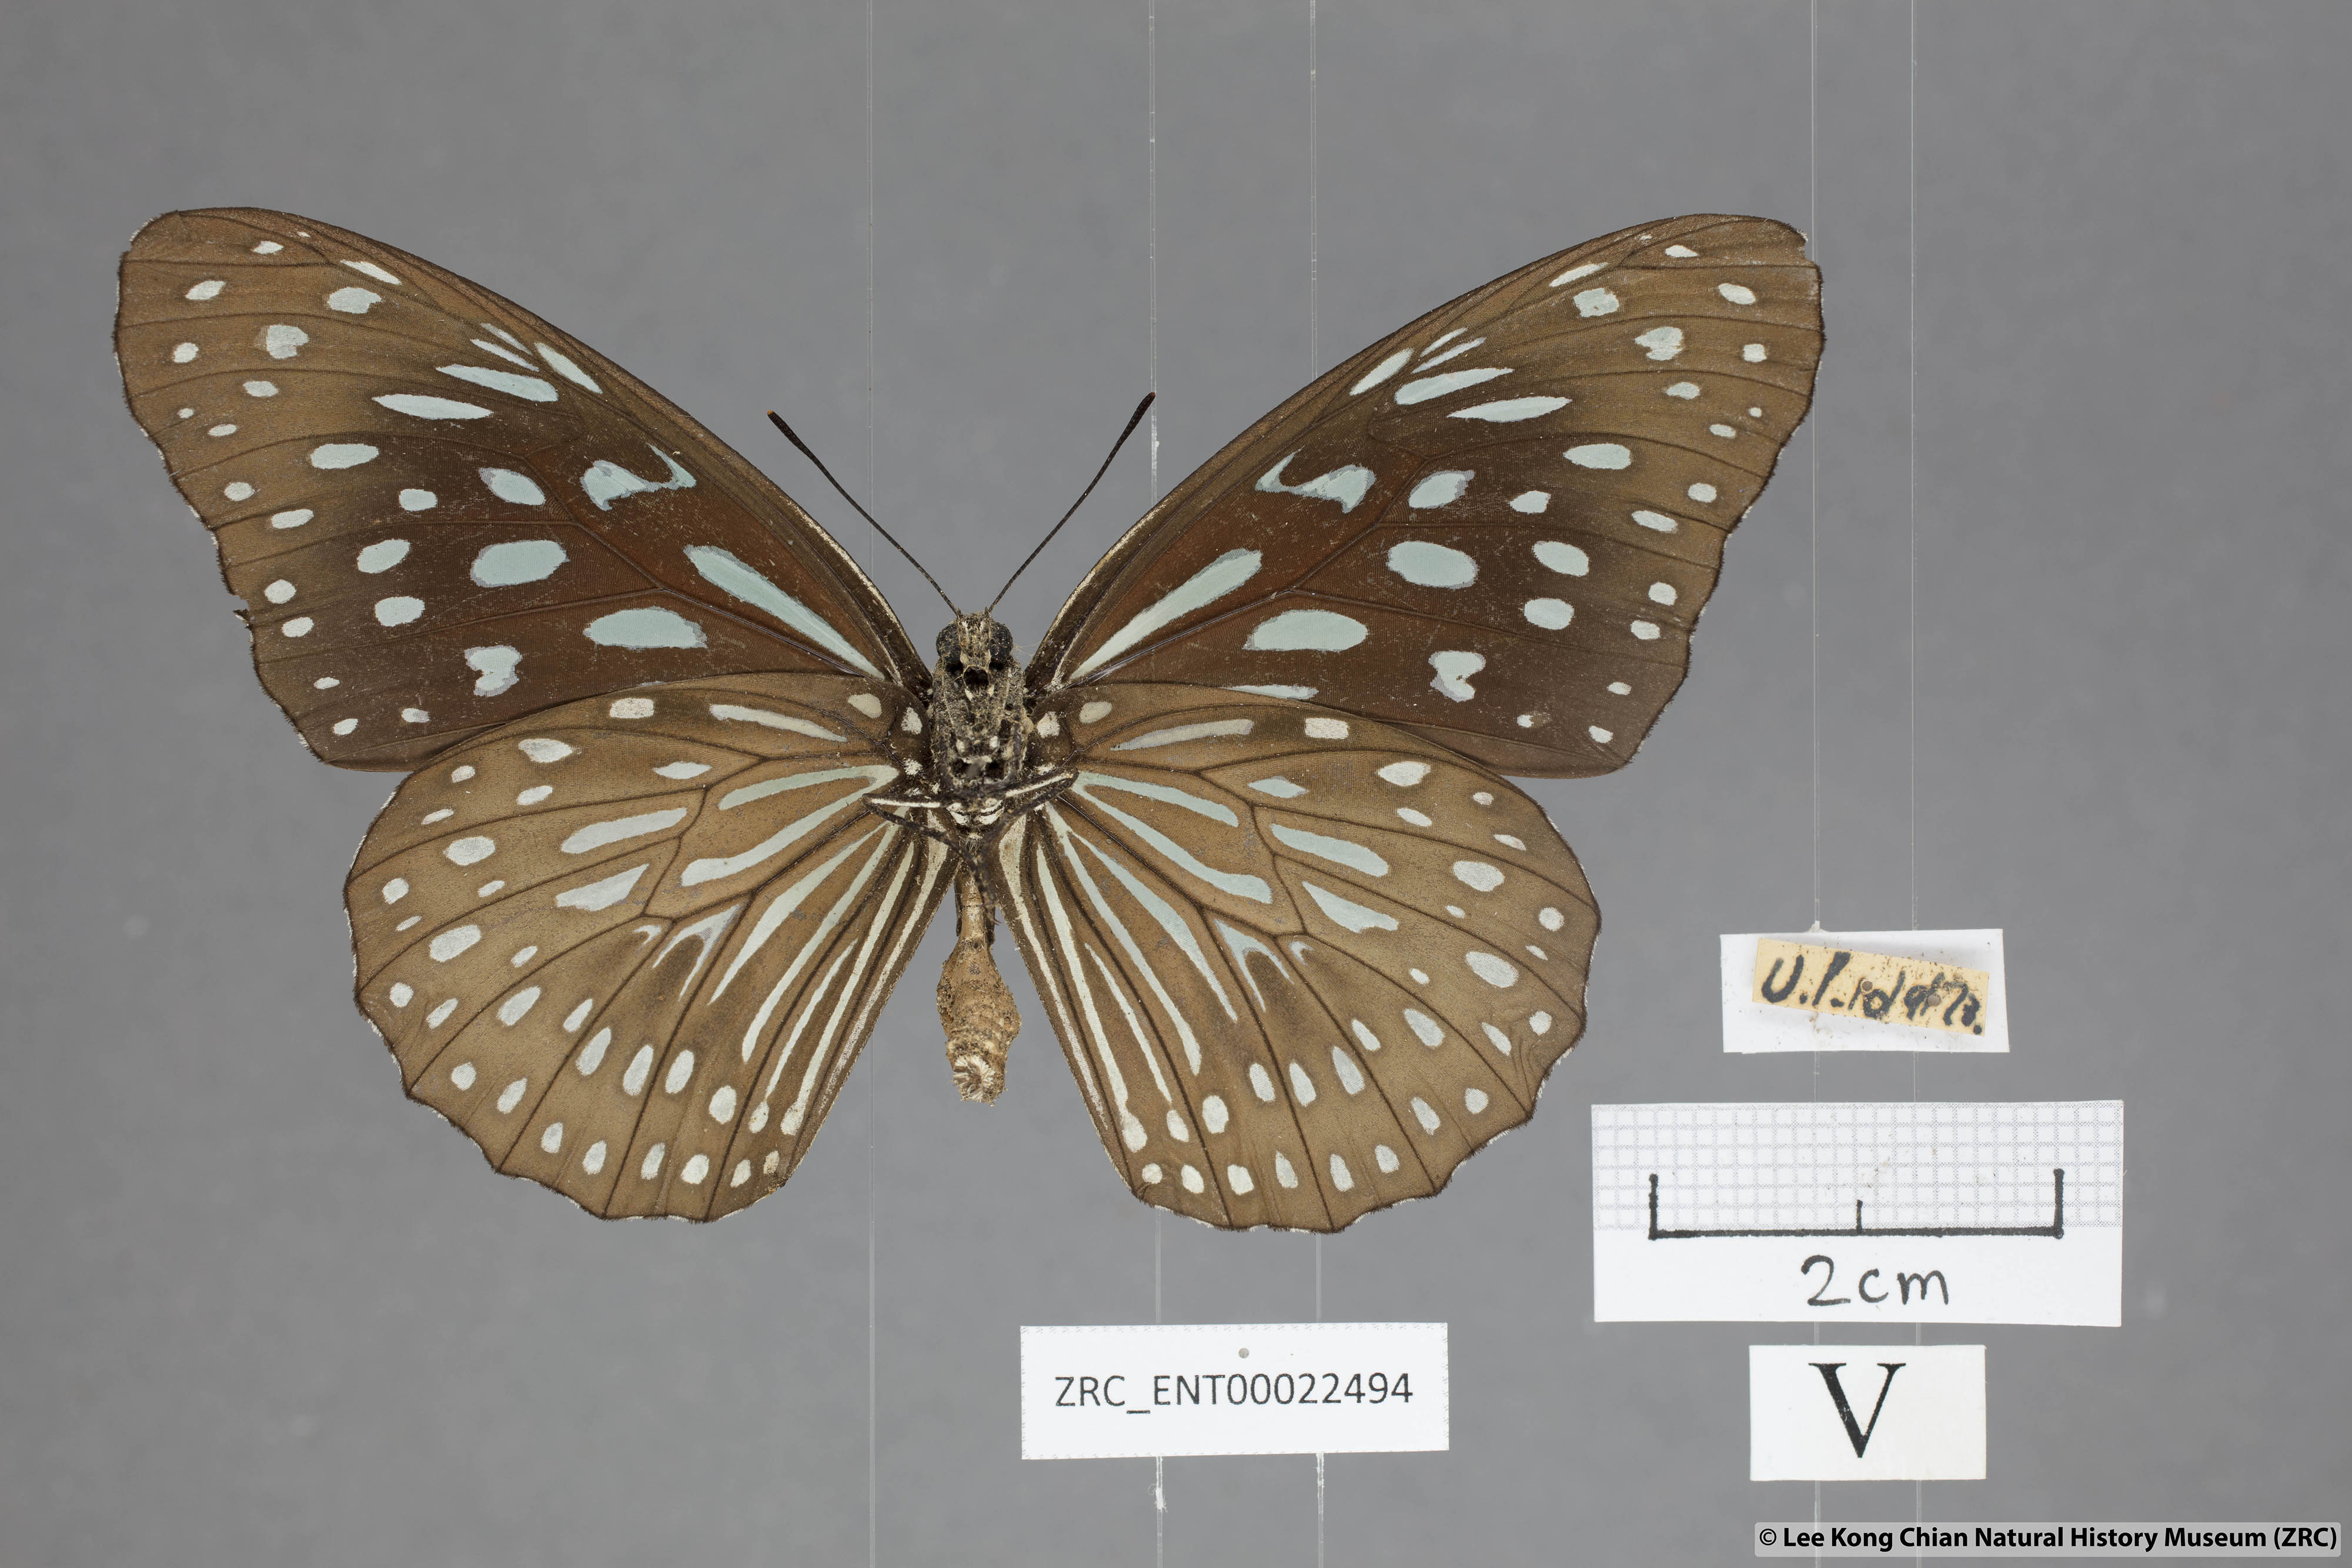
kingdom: Animalia
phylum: Arthropoda
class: Insecta
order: Lepidoptera
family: Nymphalidae
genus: Tirumala
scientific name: Tirumala septentrionis
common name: Dark blue tiger butterfly
